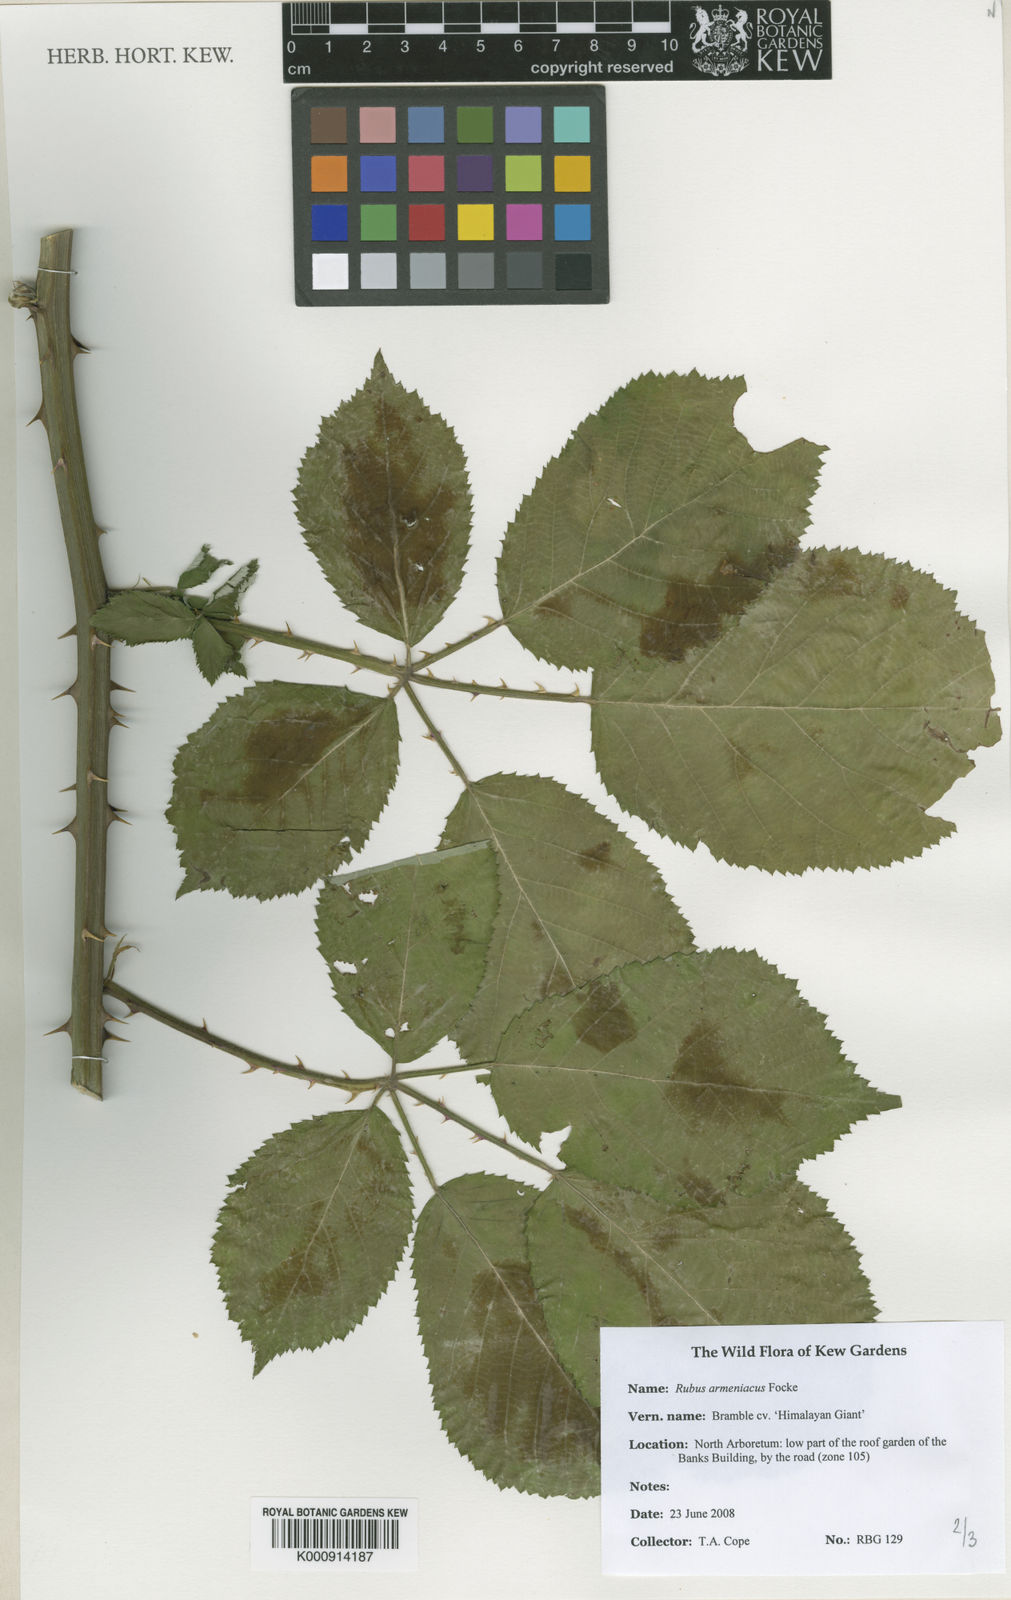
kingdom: Plantae
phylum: Tracheophyta
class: Magnoliopsida
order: Rosales
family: Rosaceae
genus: Rubus
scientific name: Rubus armeniacus
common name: Himalayan blackberry
